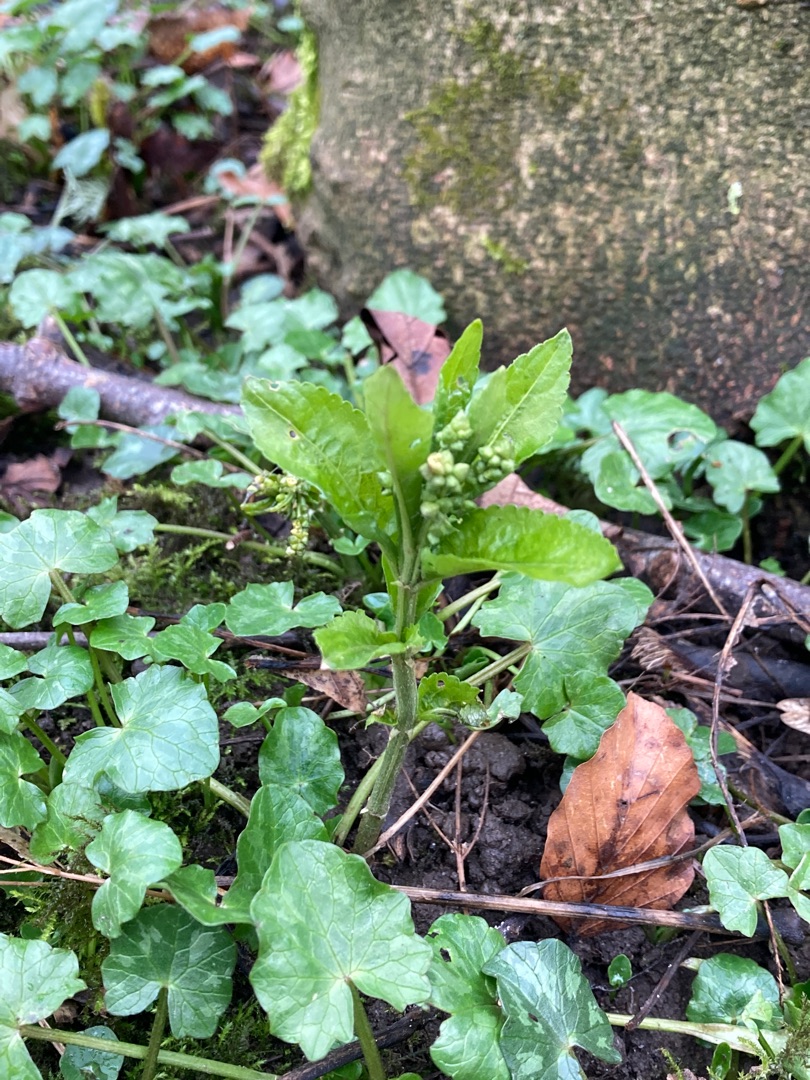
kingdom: Plantae
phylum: Tracheophyta
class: Magnoliopsida
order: Malpighiales
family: Euphorbiaceae
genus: Mercurialis
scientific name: Mercurialis perennis
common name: Almindelig bingelurt
